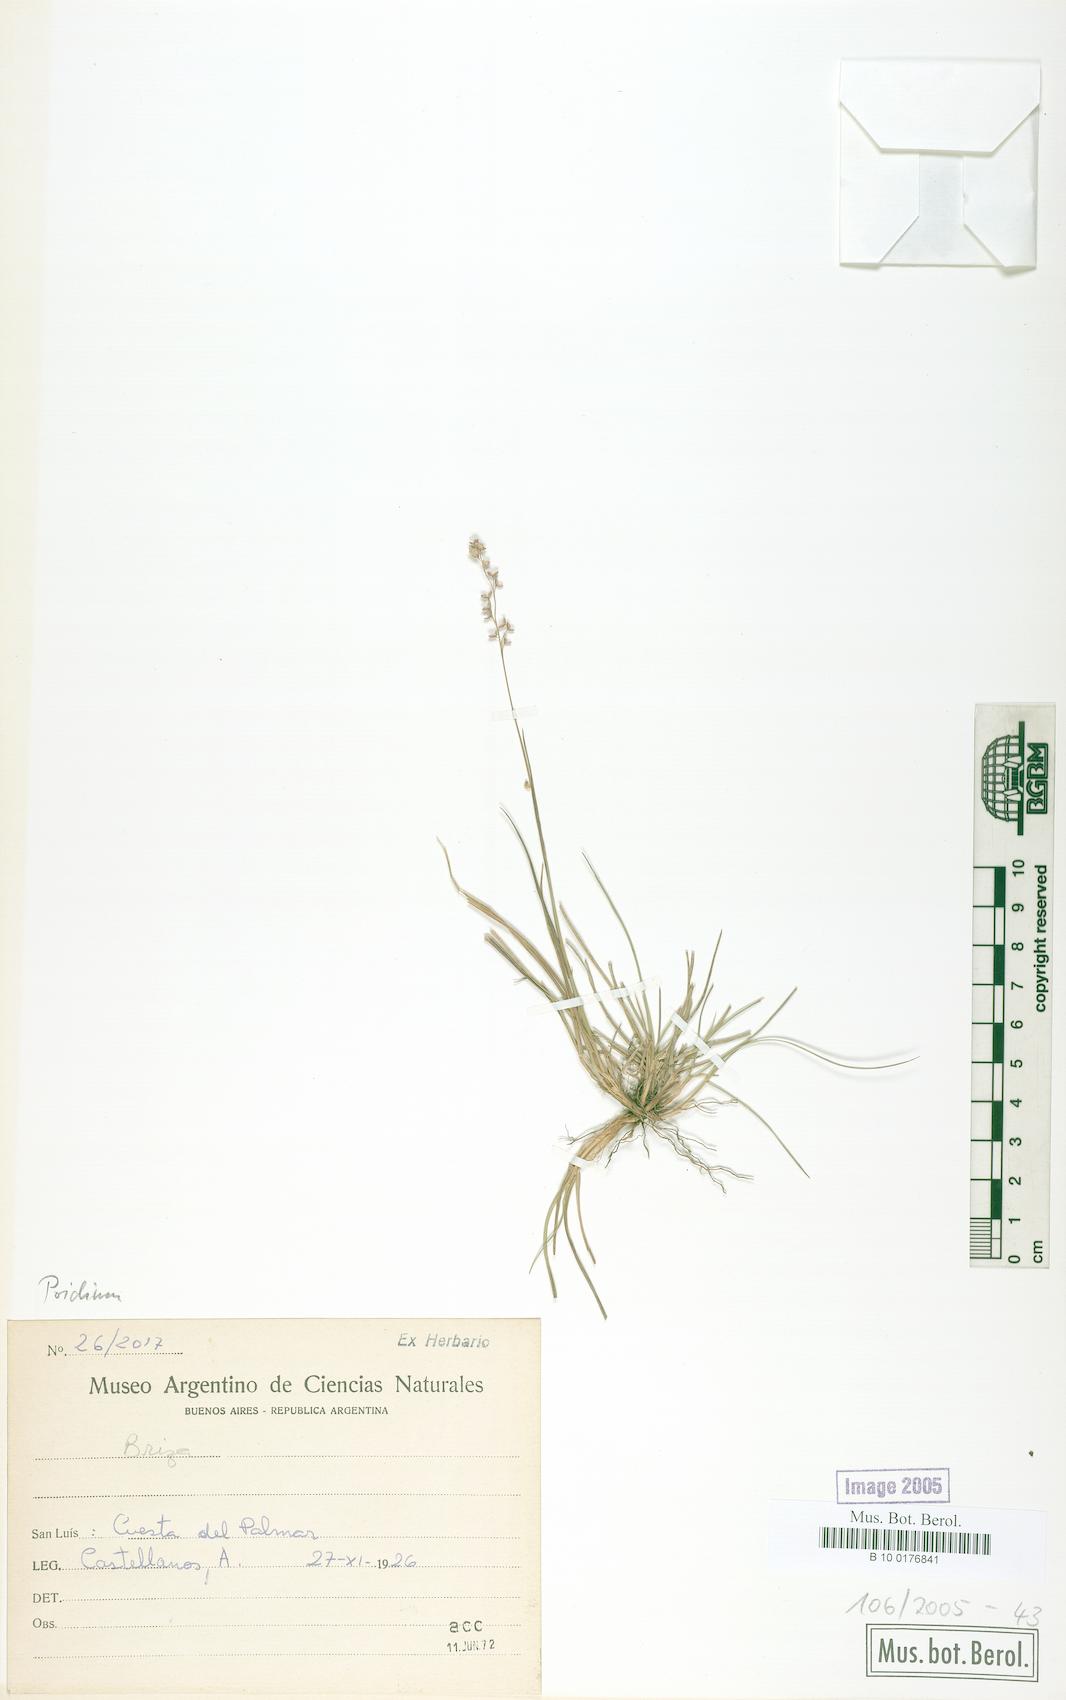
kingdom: Plantae
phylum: Tracheophyta
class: Liliopsida
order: Poales
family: Poaceae
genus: Poidium
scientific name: Poidium
